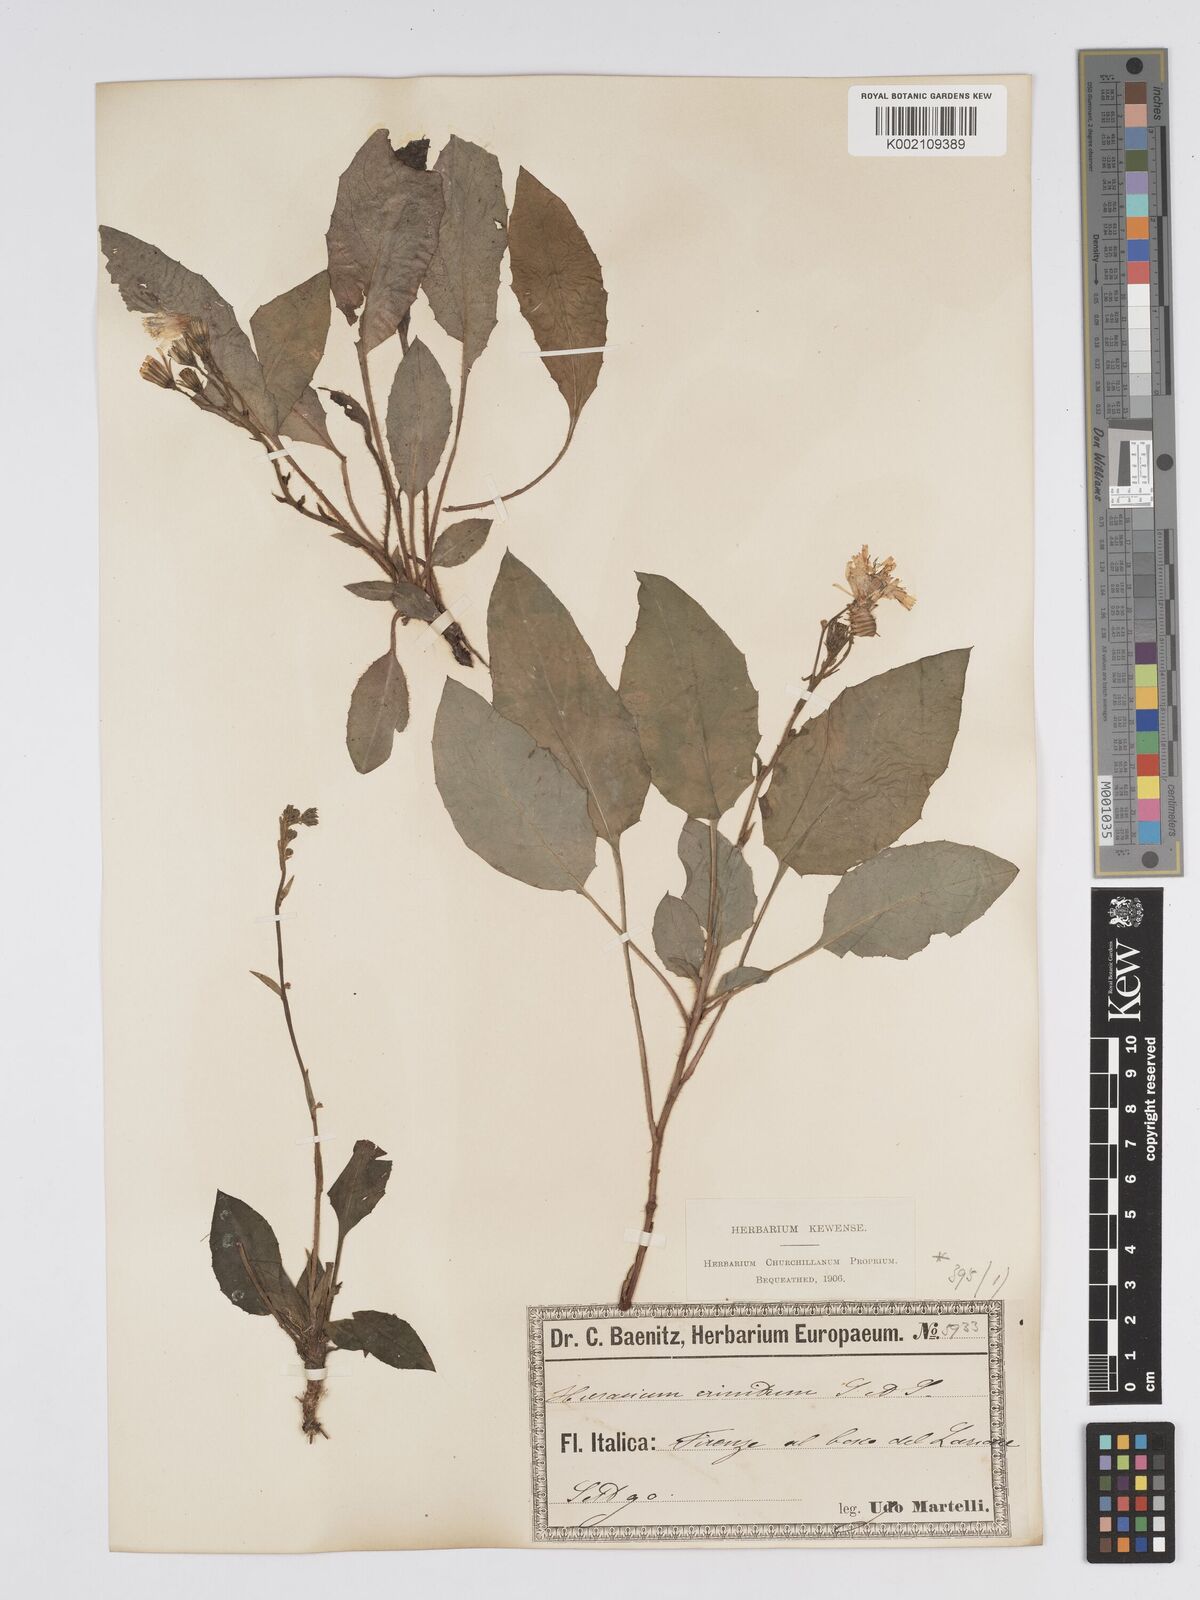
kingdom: Plantae
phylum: Tracheophyta
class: Magnoliopsida
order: Asterales
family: Asteraceae
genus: Hieracium
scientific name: Hieracium racemosum
